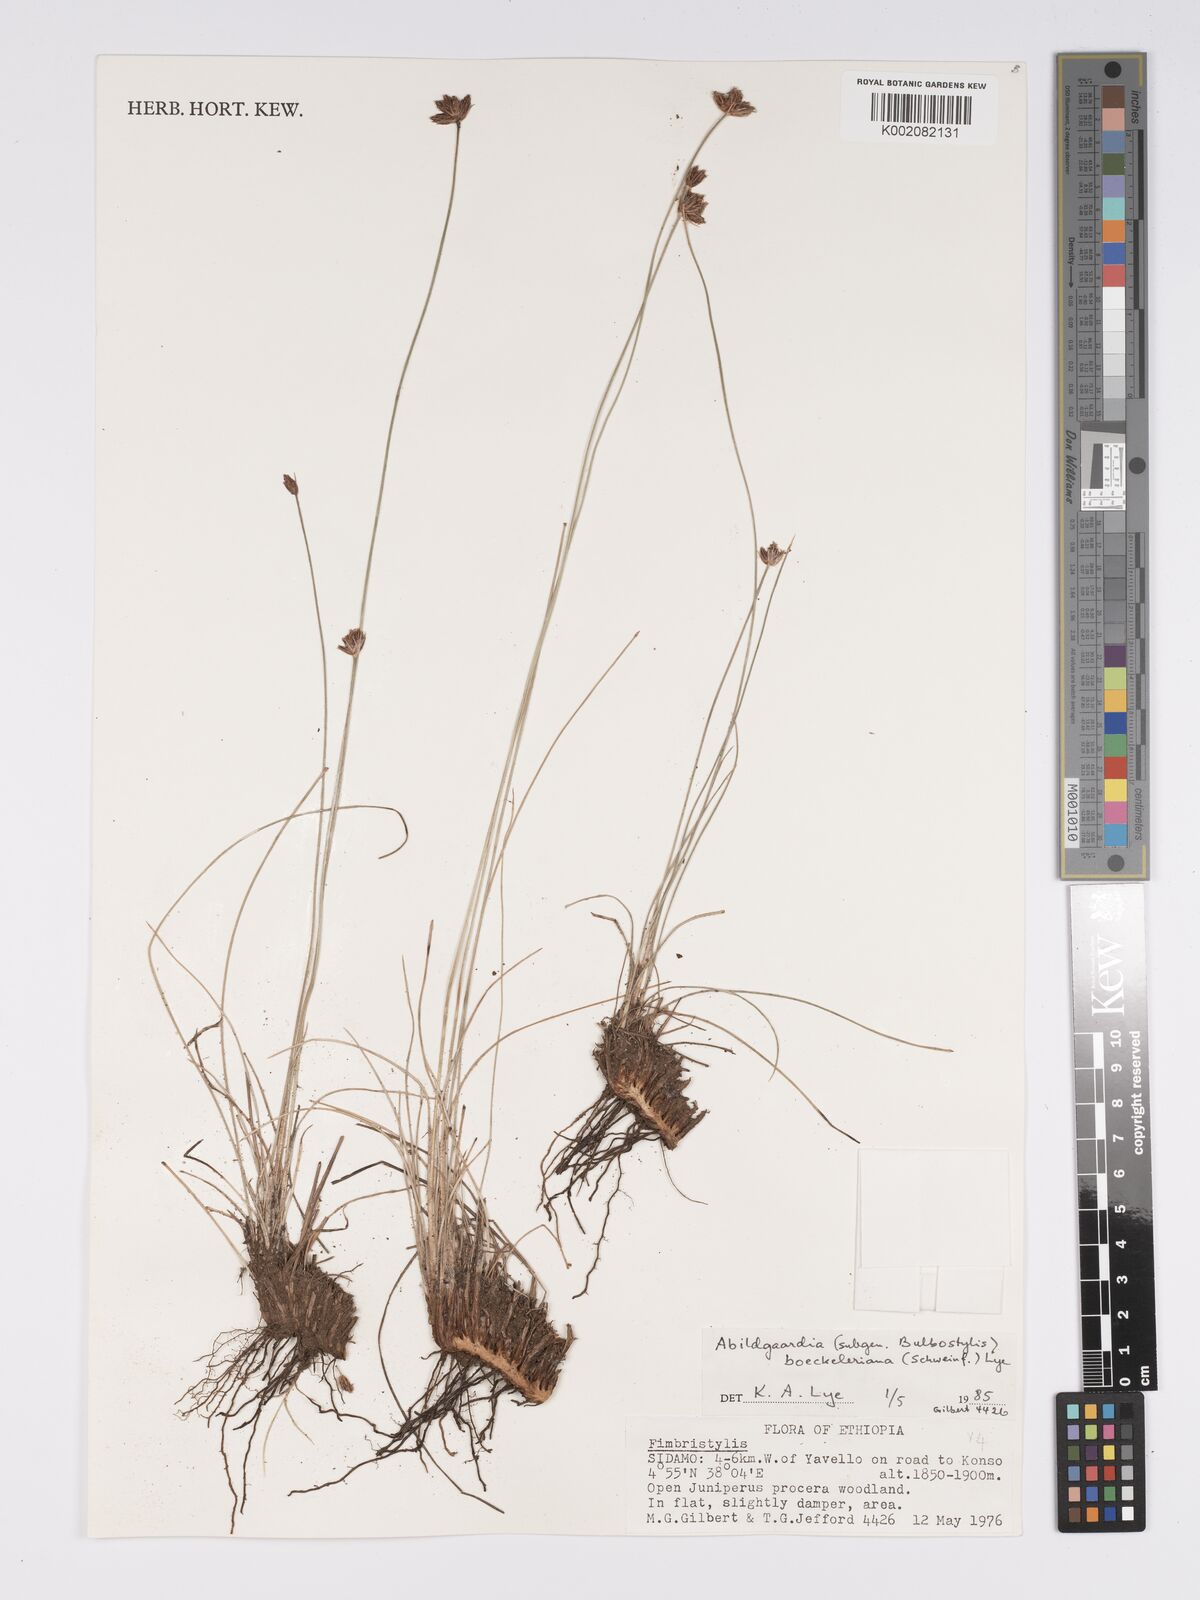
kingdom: Plantae
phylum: Tracheophyta
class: Liliopsida
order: Poales
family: Cyperaceae
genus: Bulbostylis
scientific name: Bulbostylis boeckeleriana
